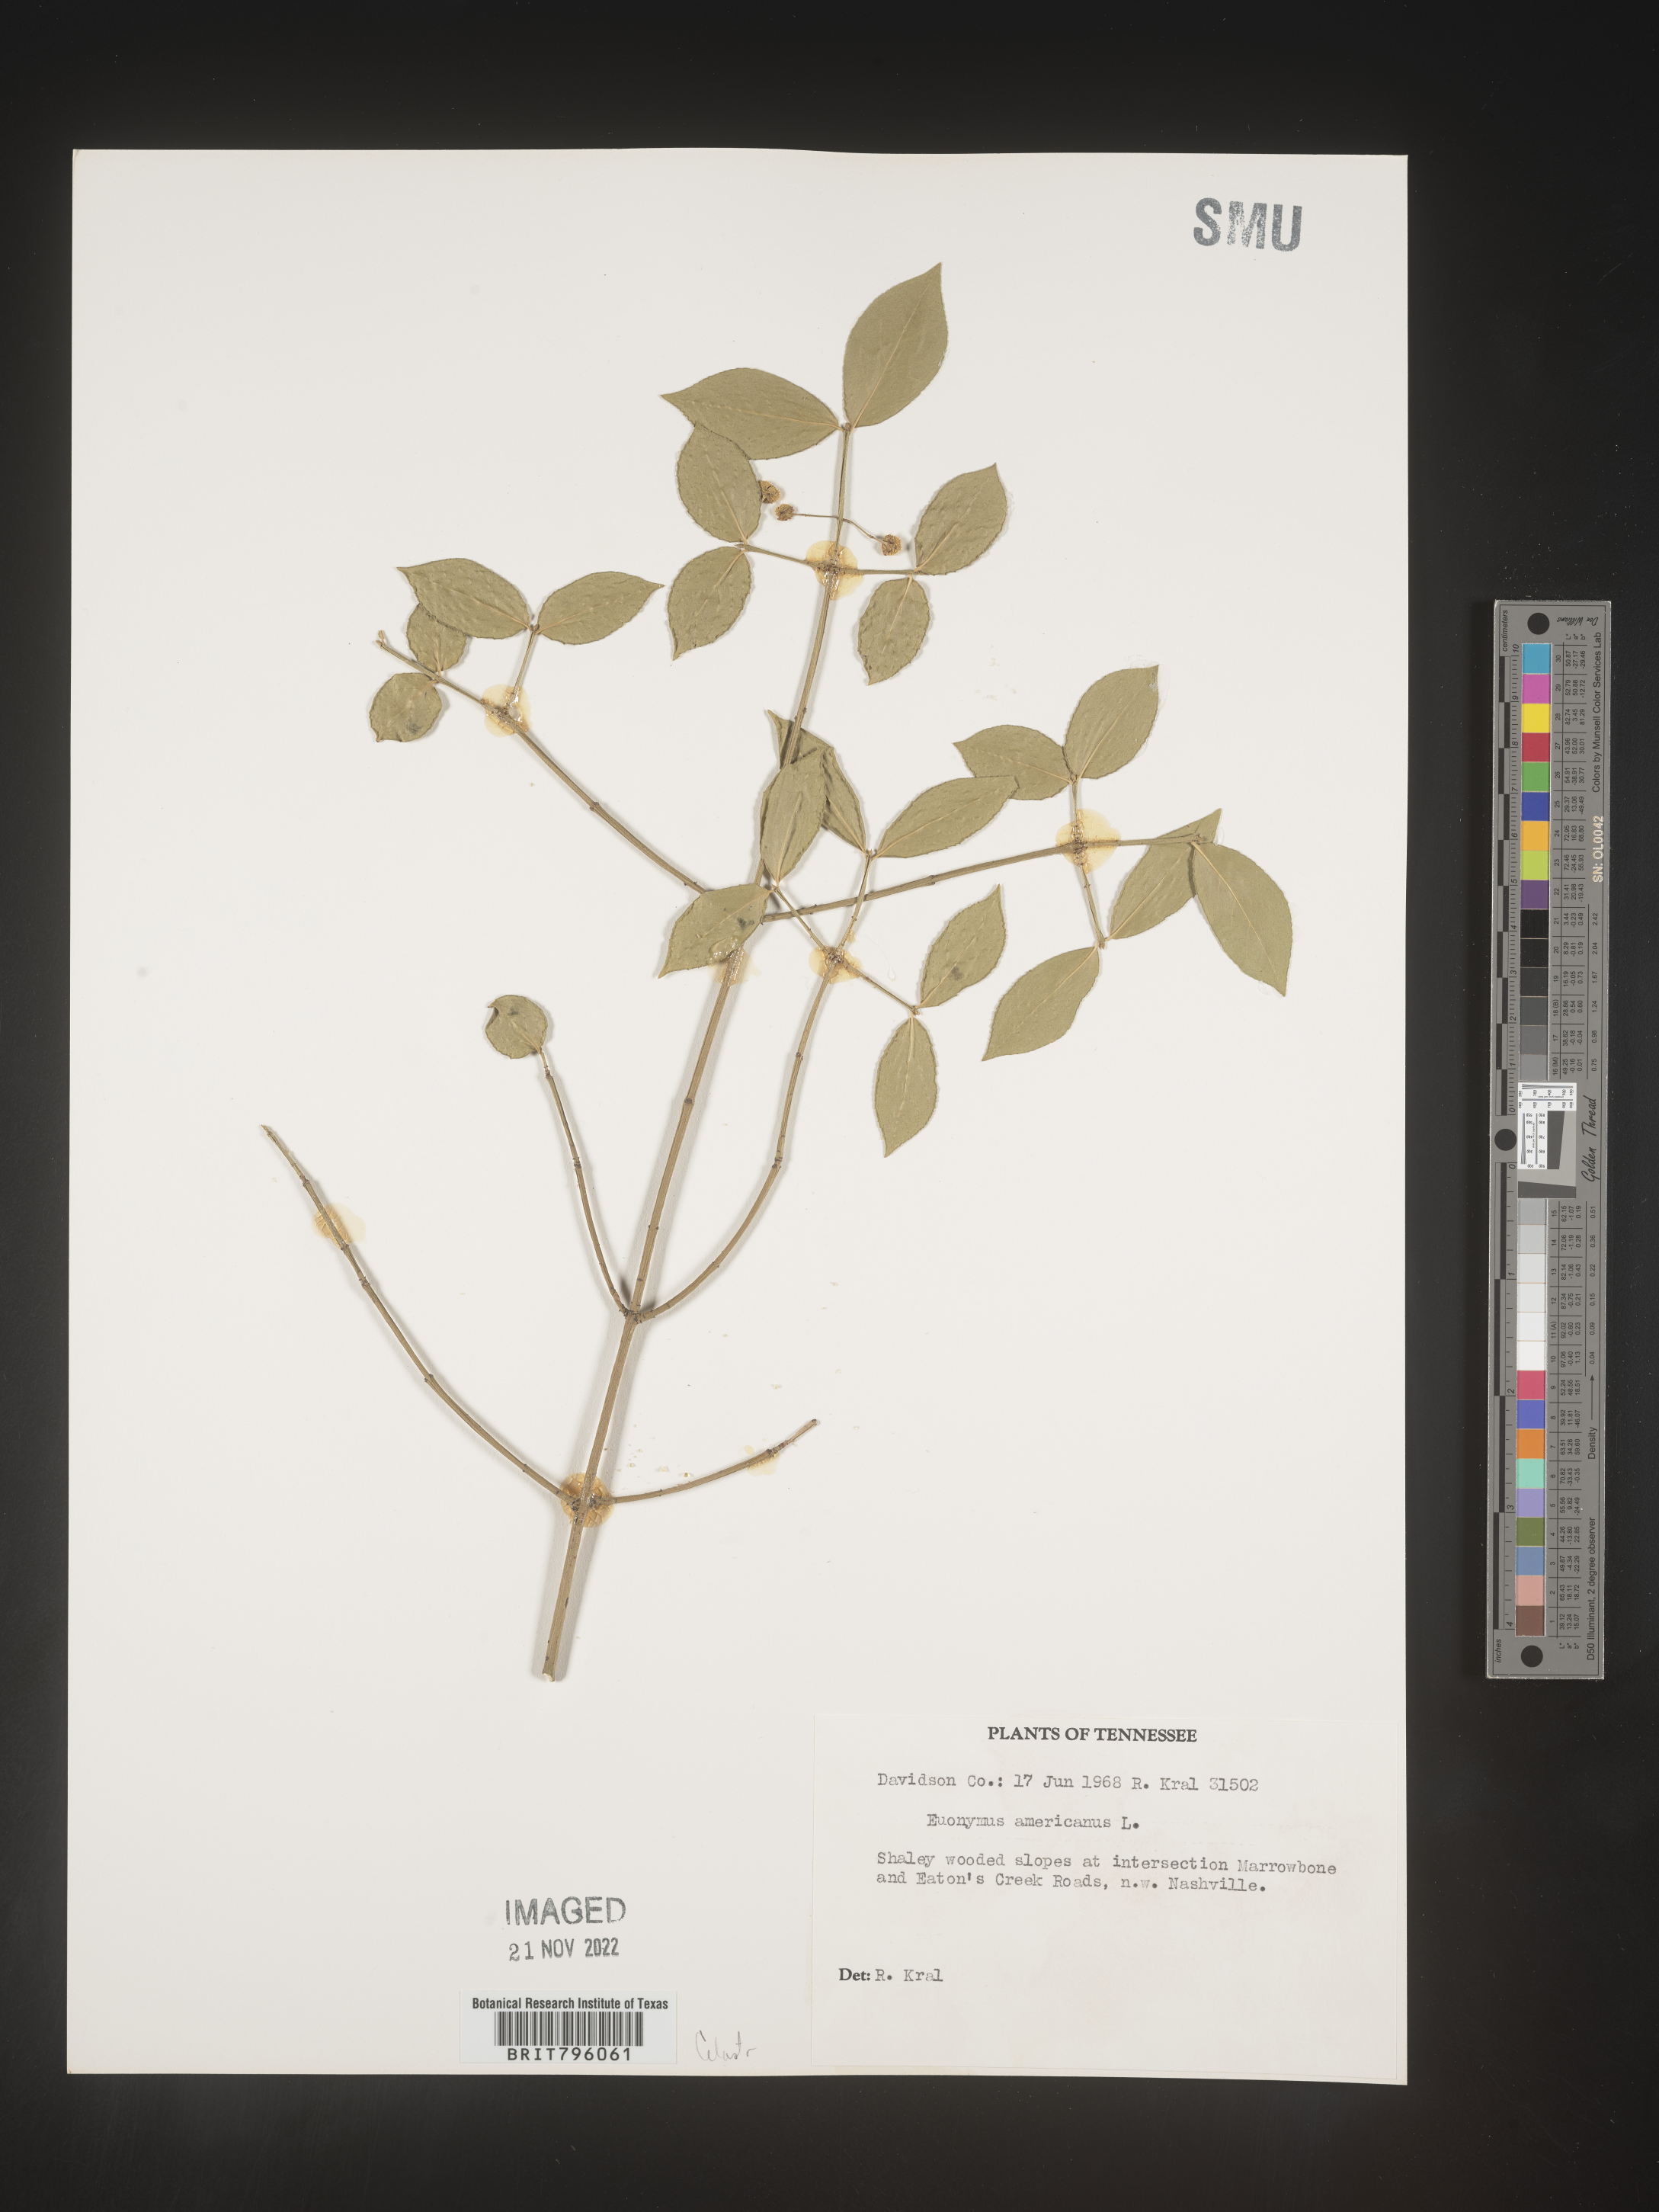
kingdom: Plantae
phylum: Tracheophyta
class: Magnoliopsida
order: Celastrales
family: Celastraceae
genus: Euonymus
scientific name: Euonymus americanus
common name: Bursting-heart
